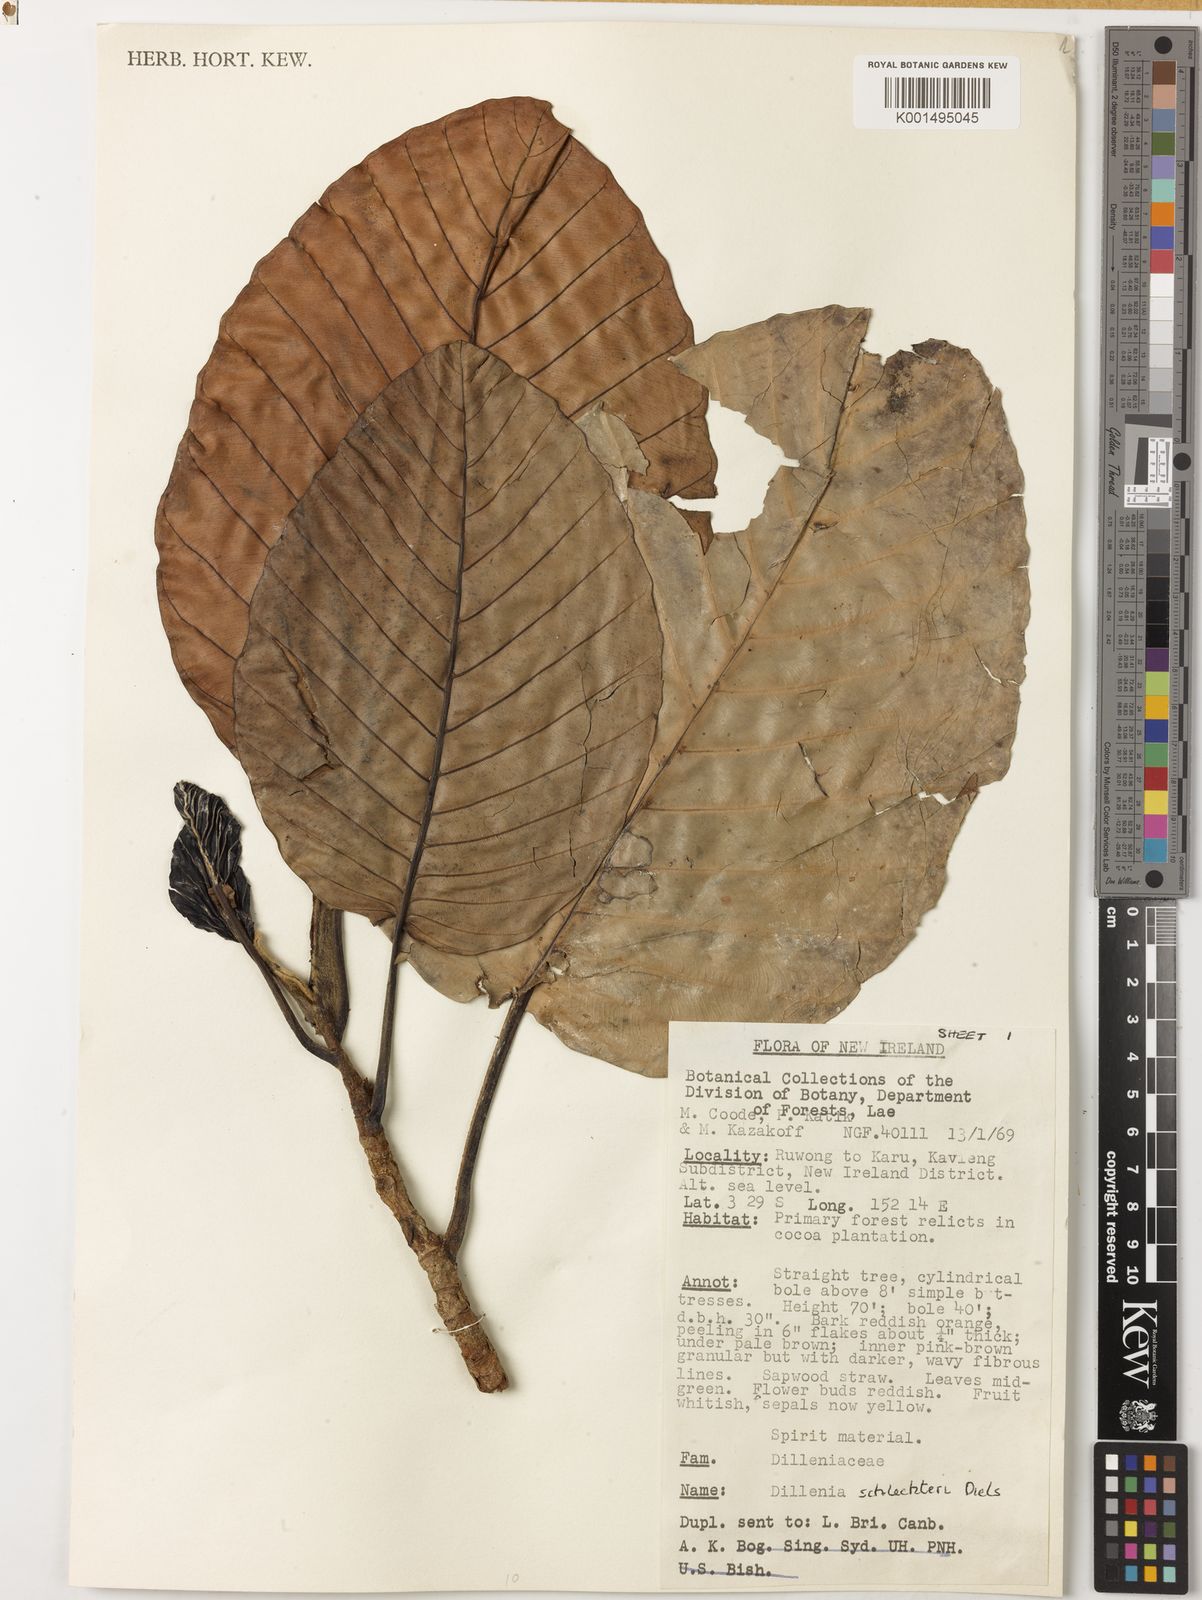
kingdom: Plantae
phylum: Tracheophyta
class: Magnoliopsida
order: Dilleniales
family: Dilleniaceae
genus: Dillenia
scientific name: Dillenia schlechteri
